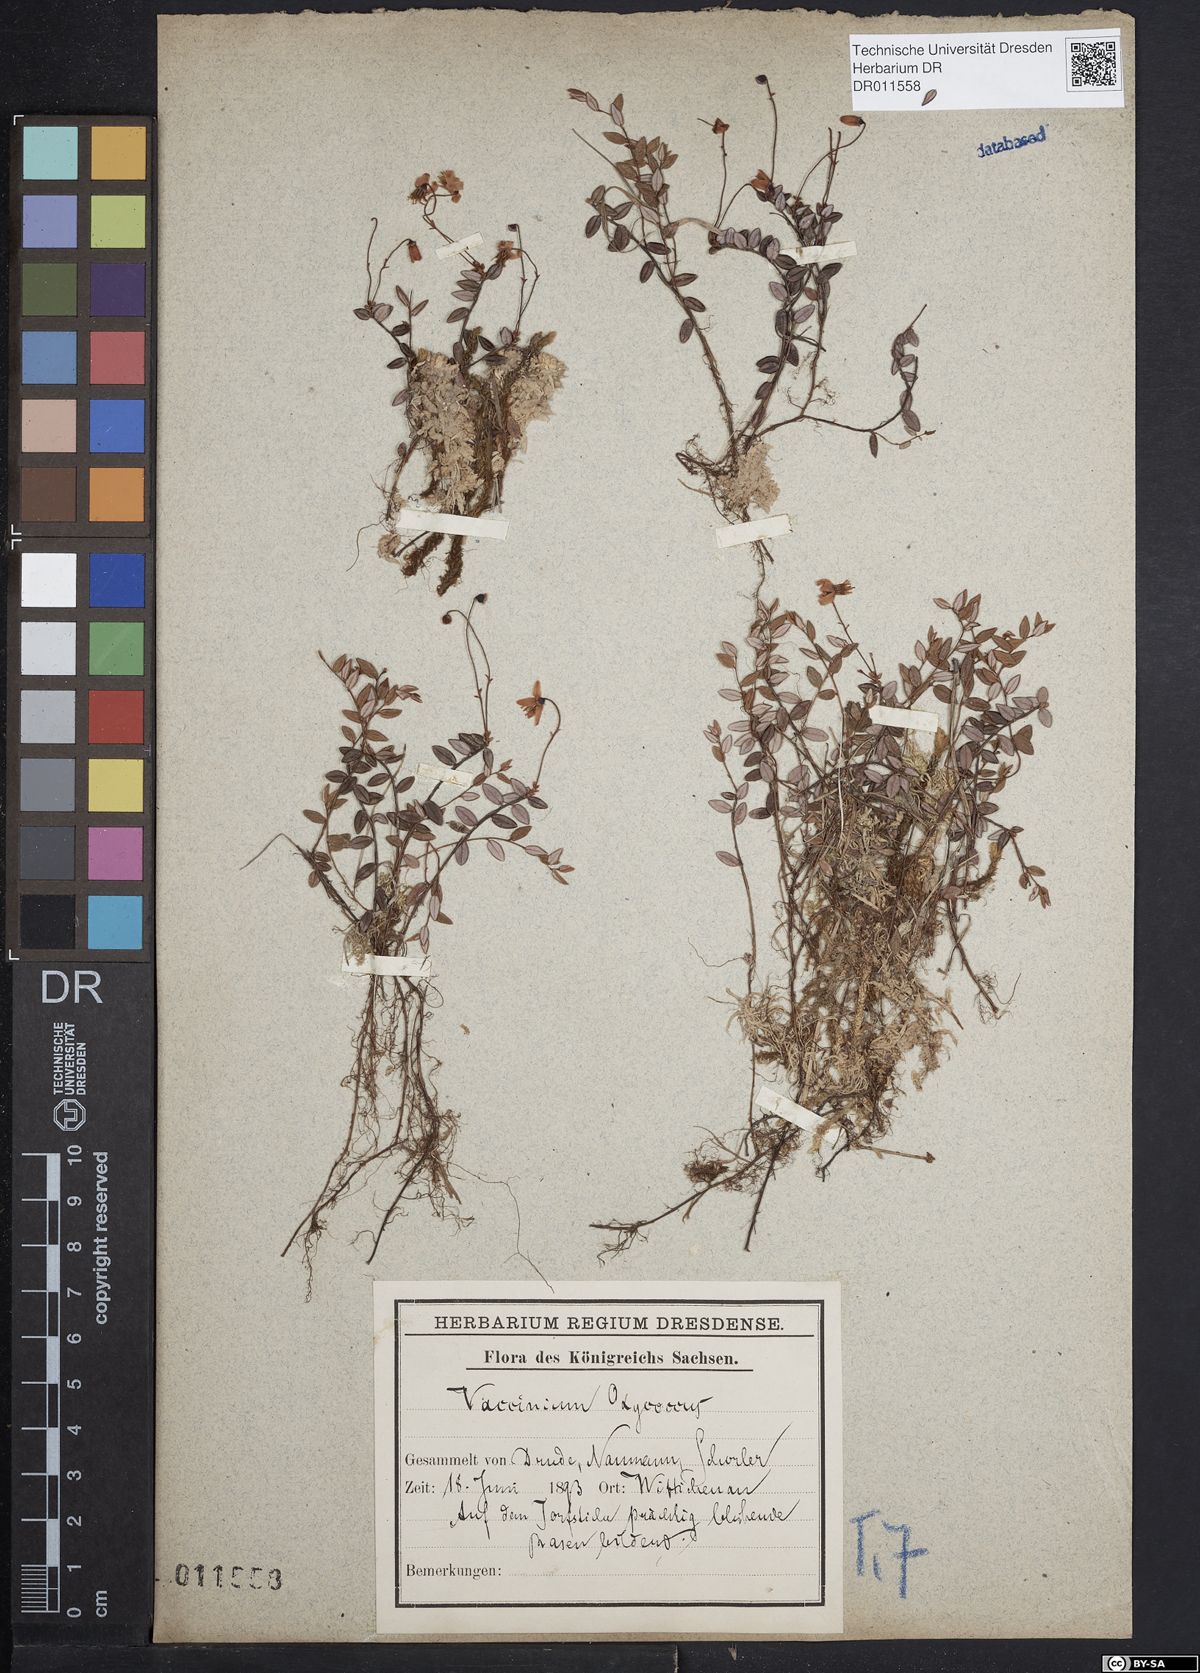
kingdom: Plantae
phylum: Tracheophyta
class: Magnoliopsida
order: Ericales
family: Ericaceae
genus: Vaccinium
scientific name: Vaccinium oxycoccos
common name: Cranberry
